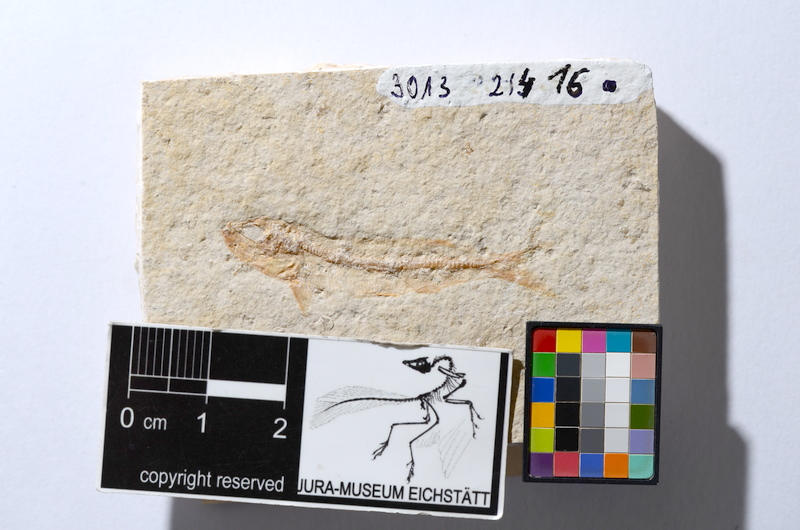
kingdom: Animalia
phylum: Chordata
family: Allothrissopidae
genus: Allothrissops
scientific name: Allothrissops mesogaster
